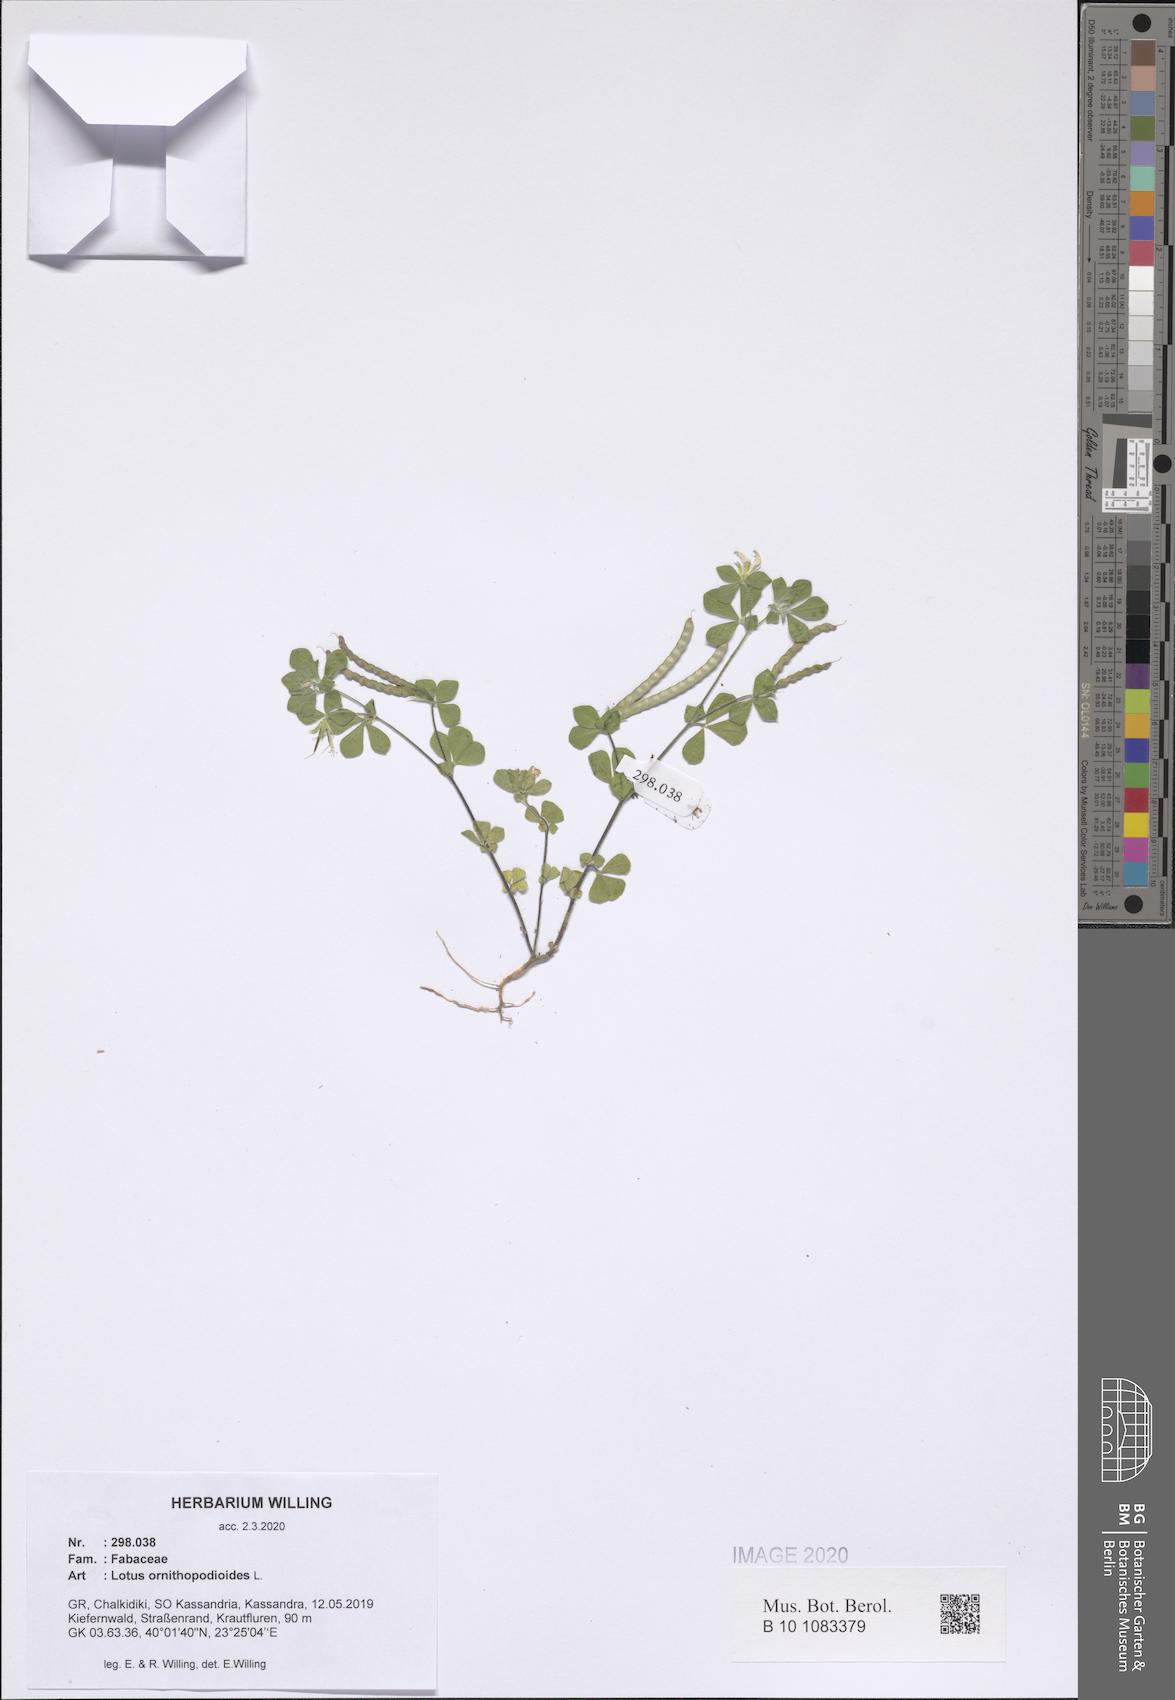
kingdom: Plantae
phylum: Tracheophyta
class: Magnoliopsida
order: Fabales
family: Fabaceae
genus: Lotus
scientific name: Lotus ornithopodioides
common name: Southern bird's-foot trefoil
